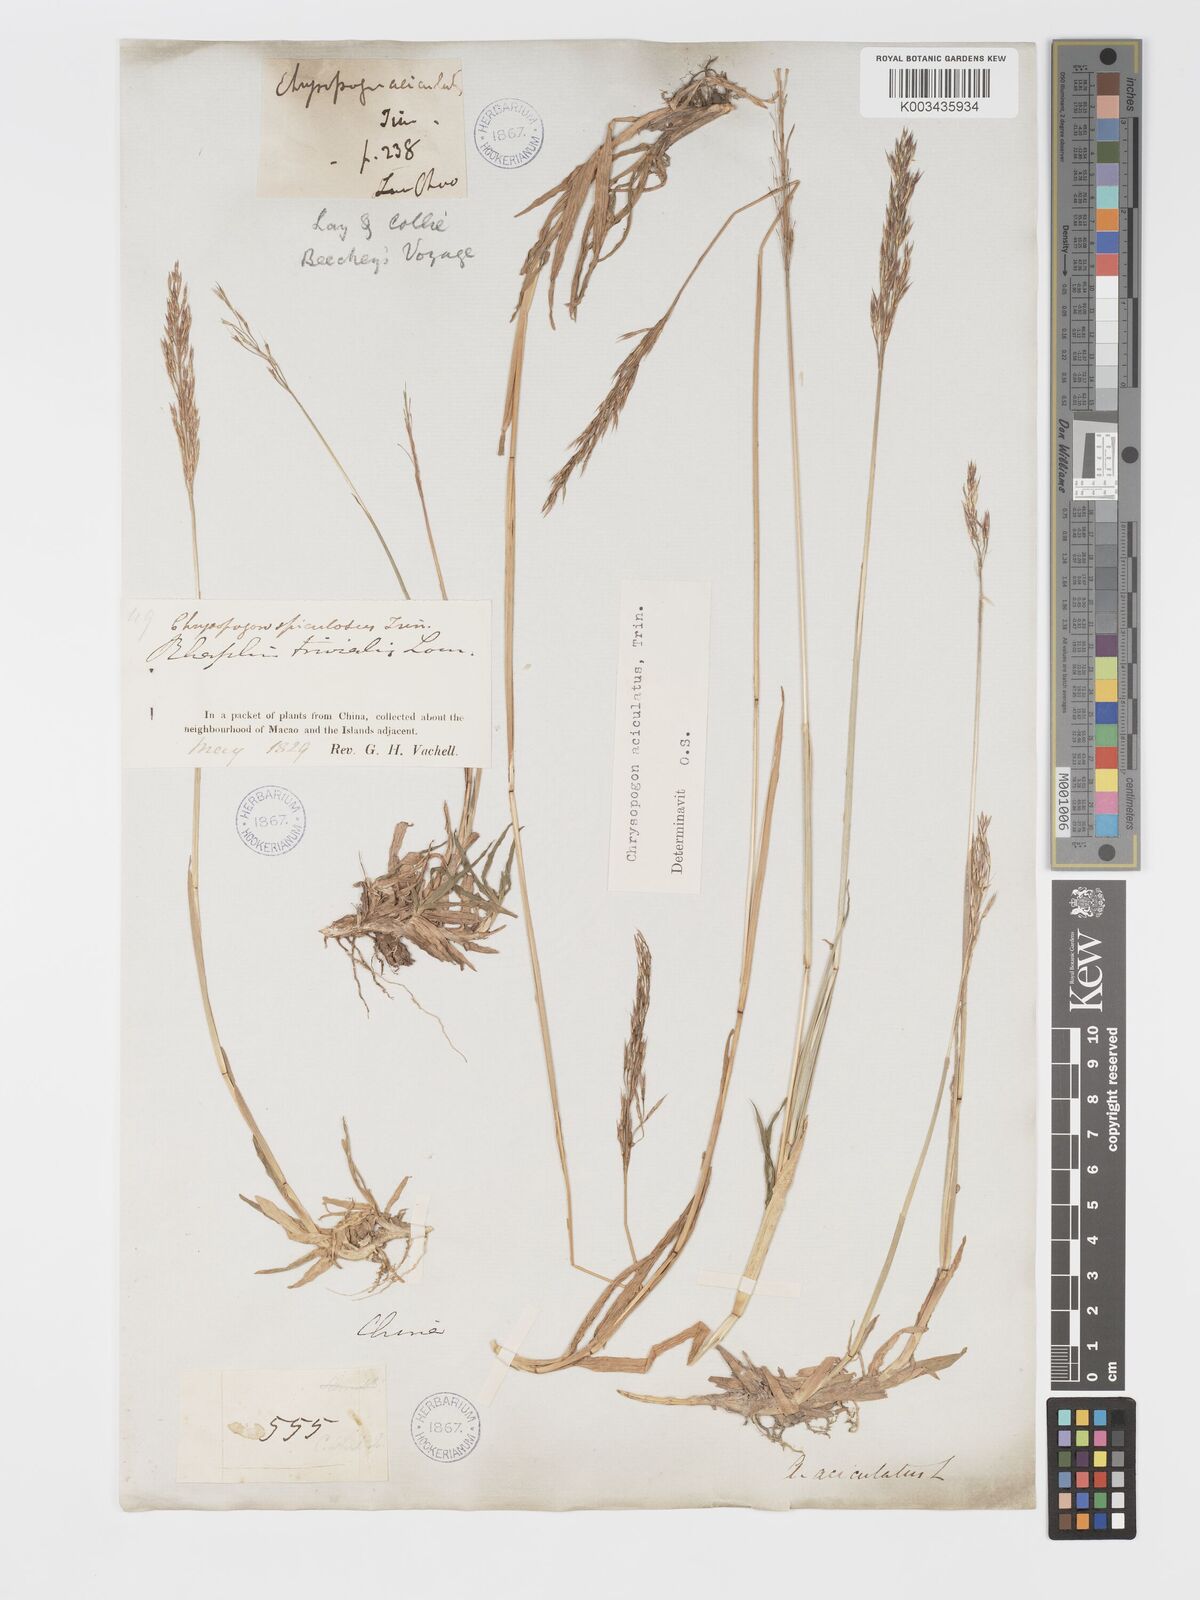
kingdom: Plantae
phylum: Tracheophyta
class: Liliopsida
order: Poales
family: Poaceae
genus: Chrysopogon
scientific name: Chrysopogon aciculatus
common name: Pilipiliula
